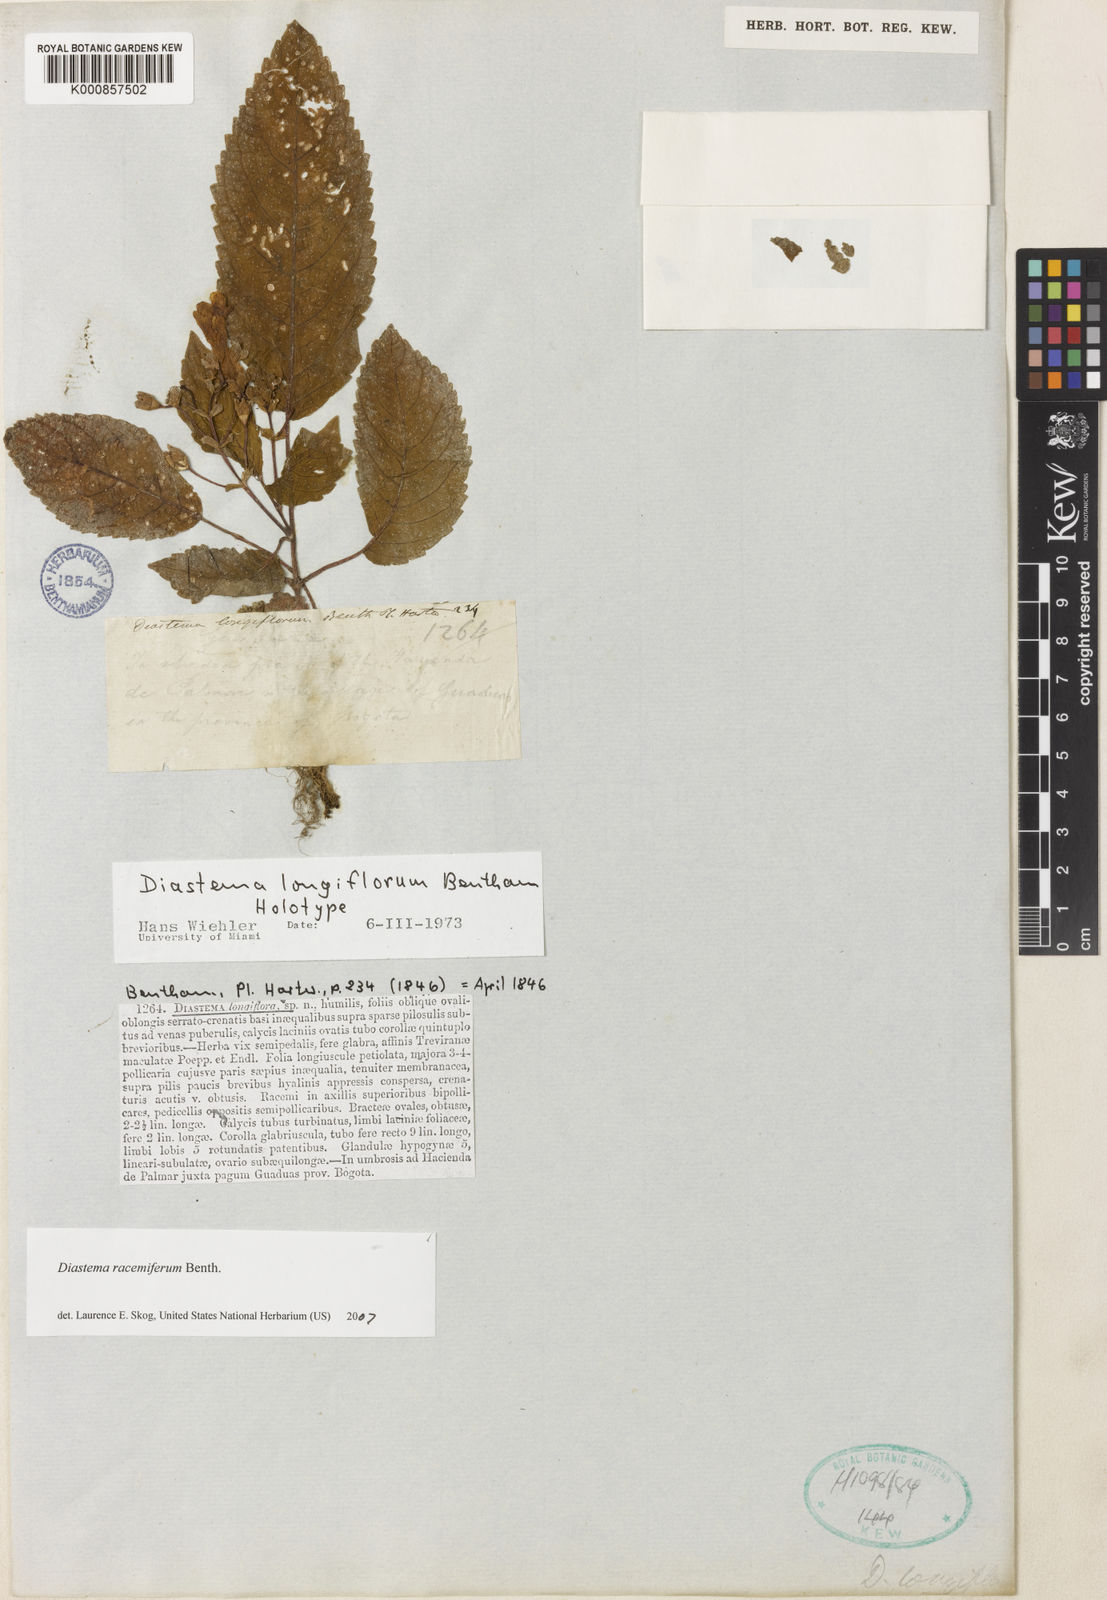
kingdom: Plantae
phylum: Tracheophyta
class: Magnoliopsida
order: Lamiales
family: Gesneriaceae
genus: Diastema
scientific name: Diastema racemiferum
